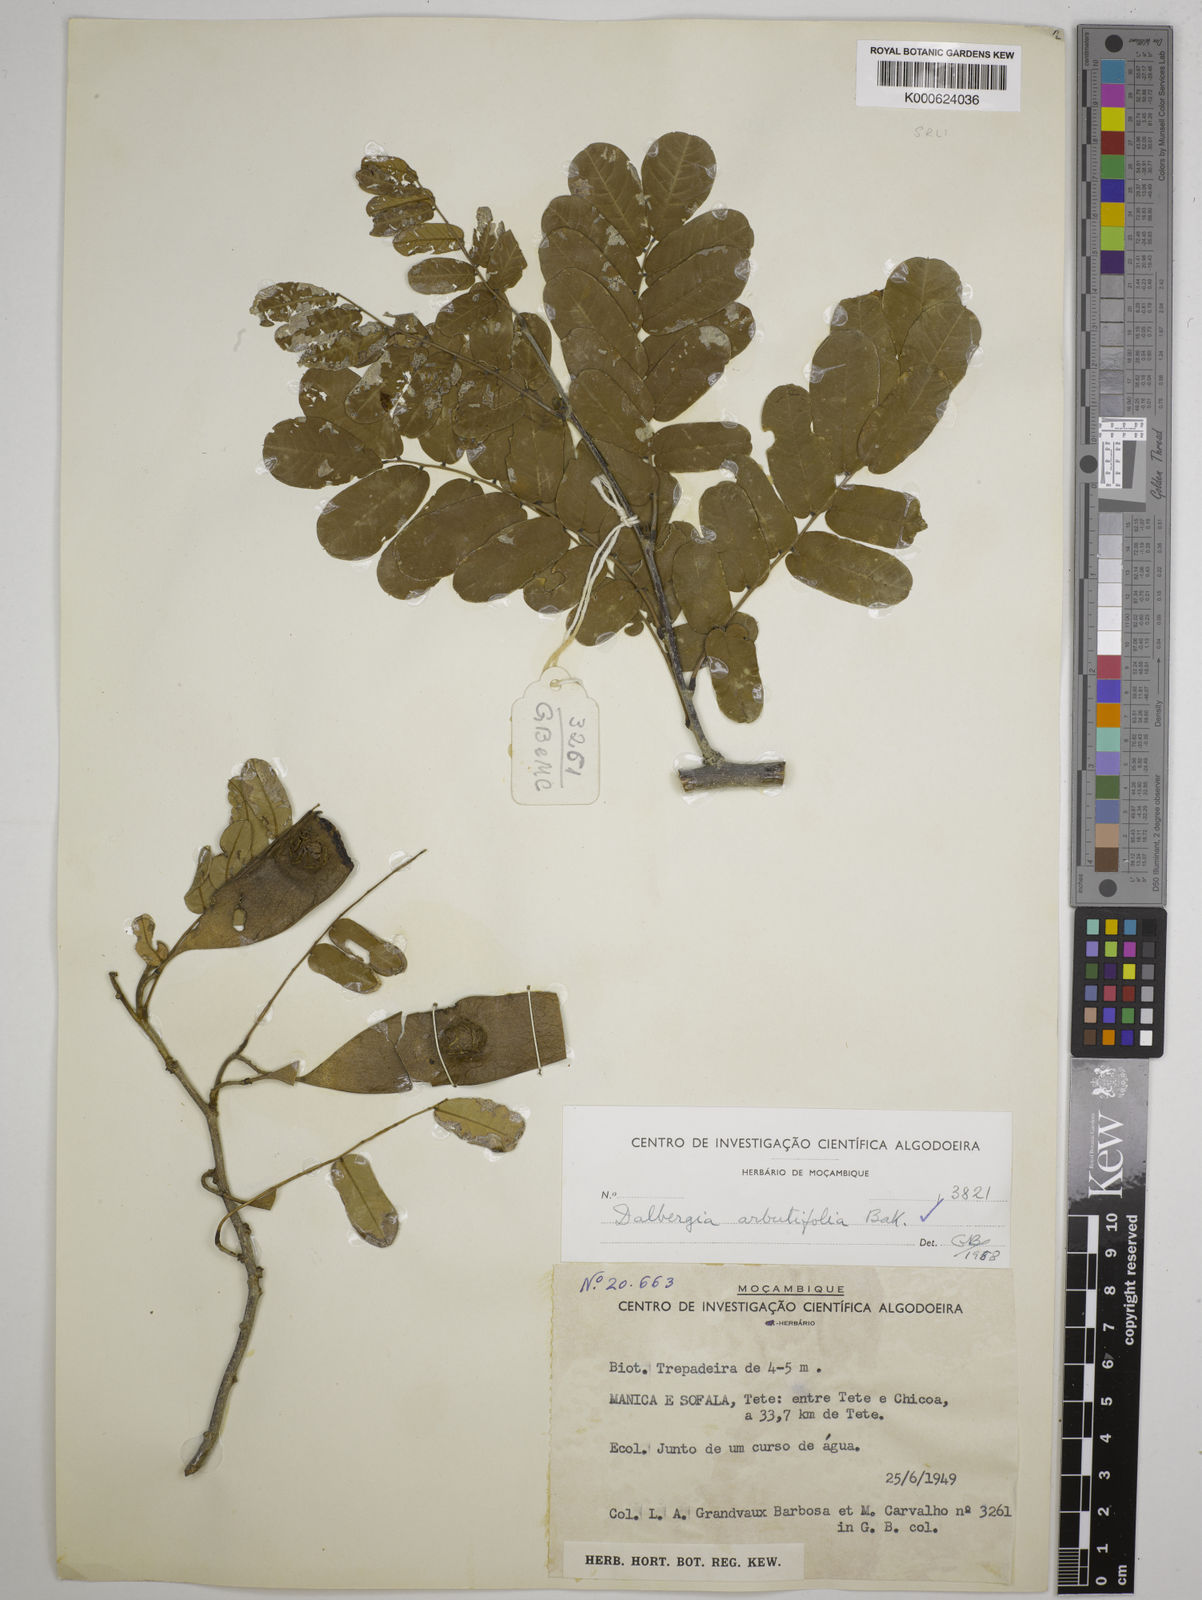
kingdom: Plantae
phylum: Tracheophyta
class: Magnoliopsida
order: Fabales
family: Fabaceae
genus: Dalbergia
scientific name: Dalbergia arbutifolia
